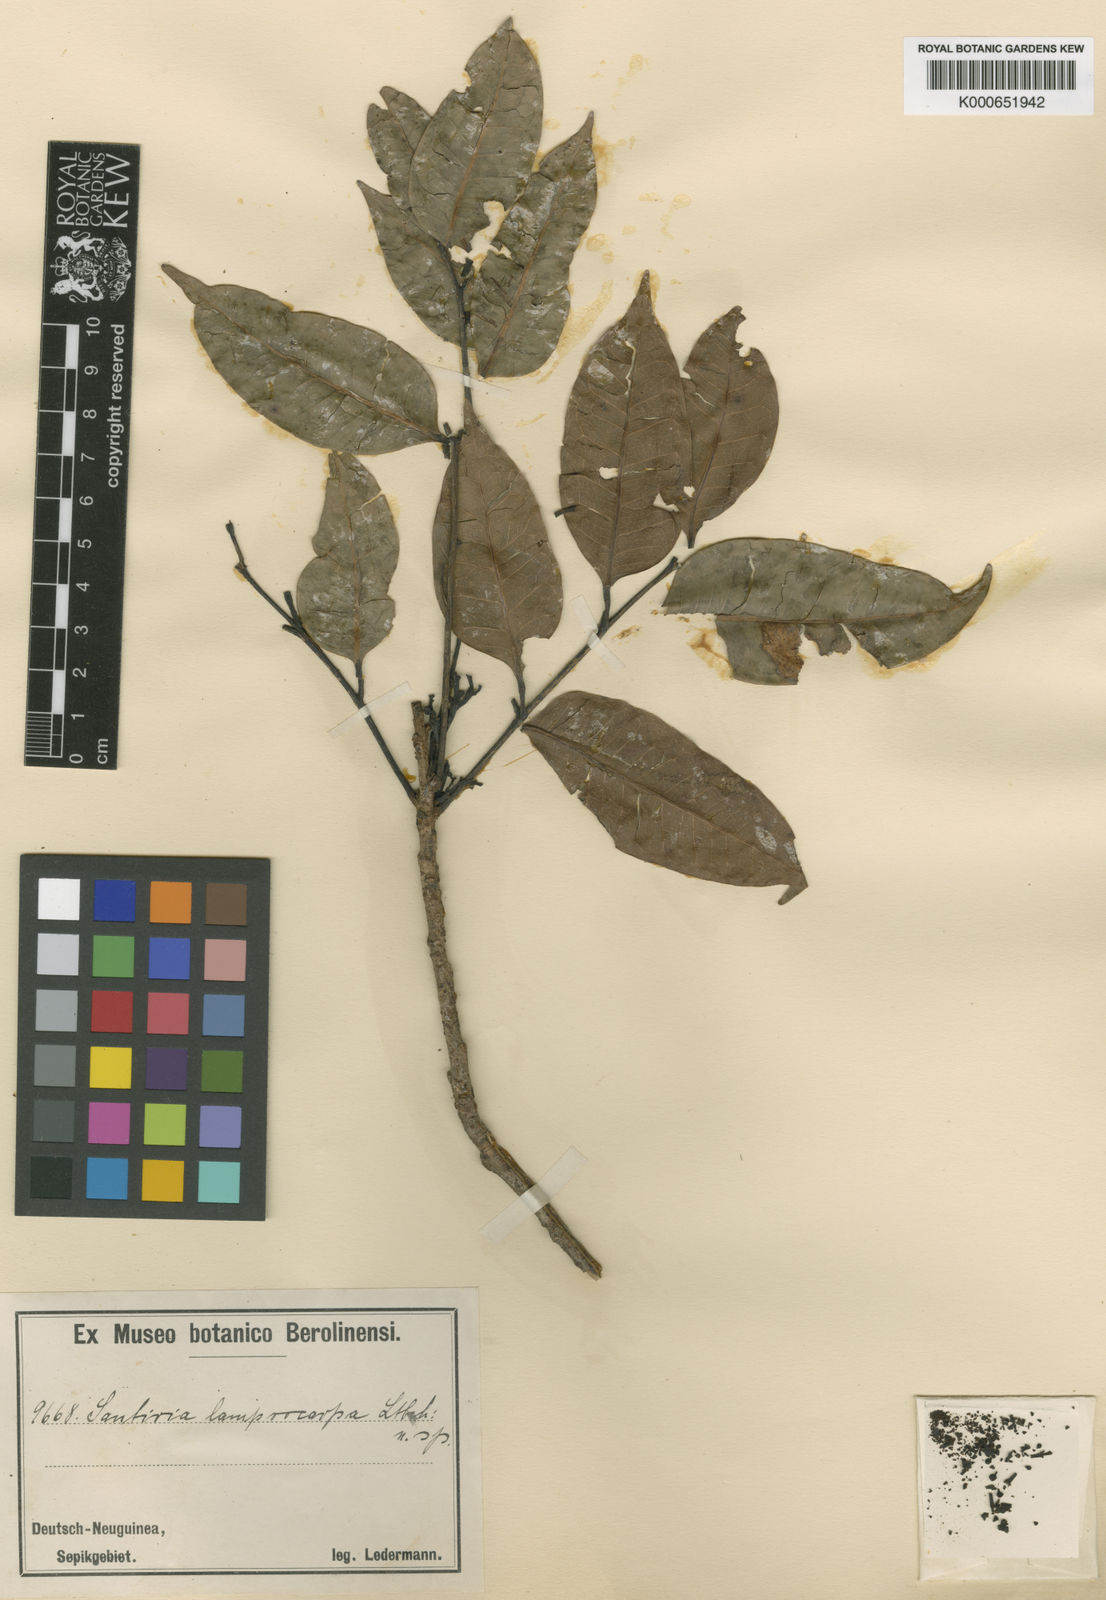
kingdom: Plantae
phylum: Tracheophyta
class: Magnoliopsida
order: Sapindales
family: Burseraceae
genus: Santiria
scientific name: Santiria rubiginosa
